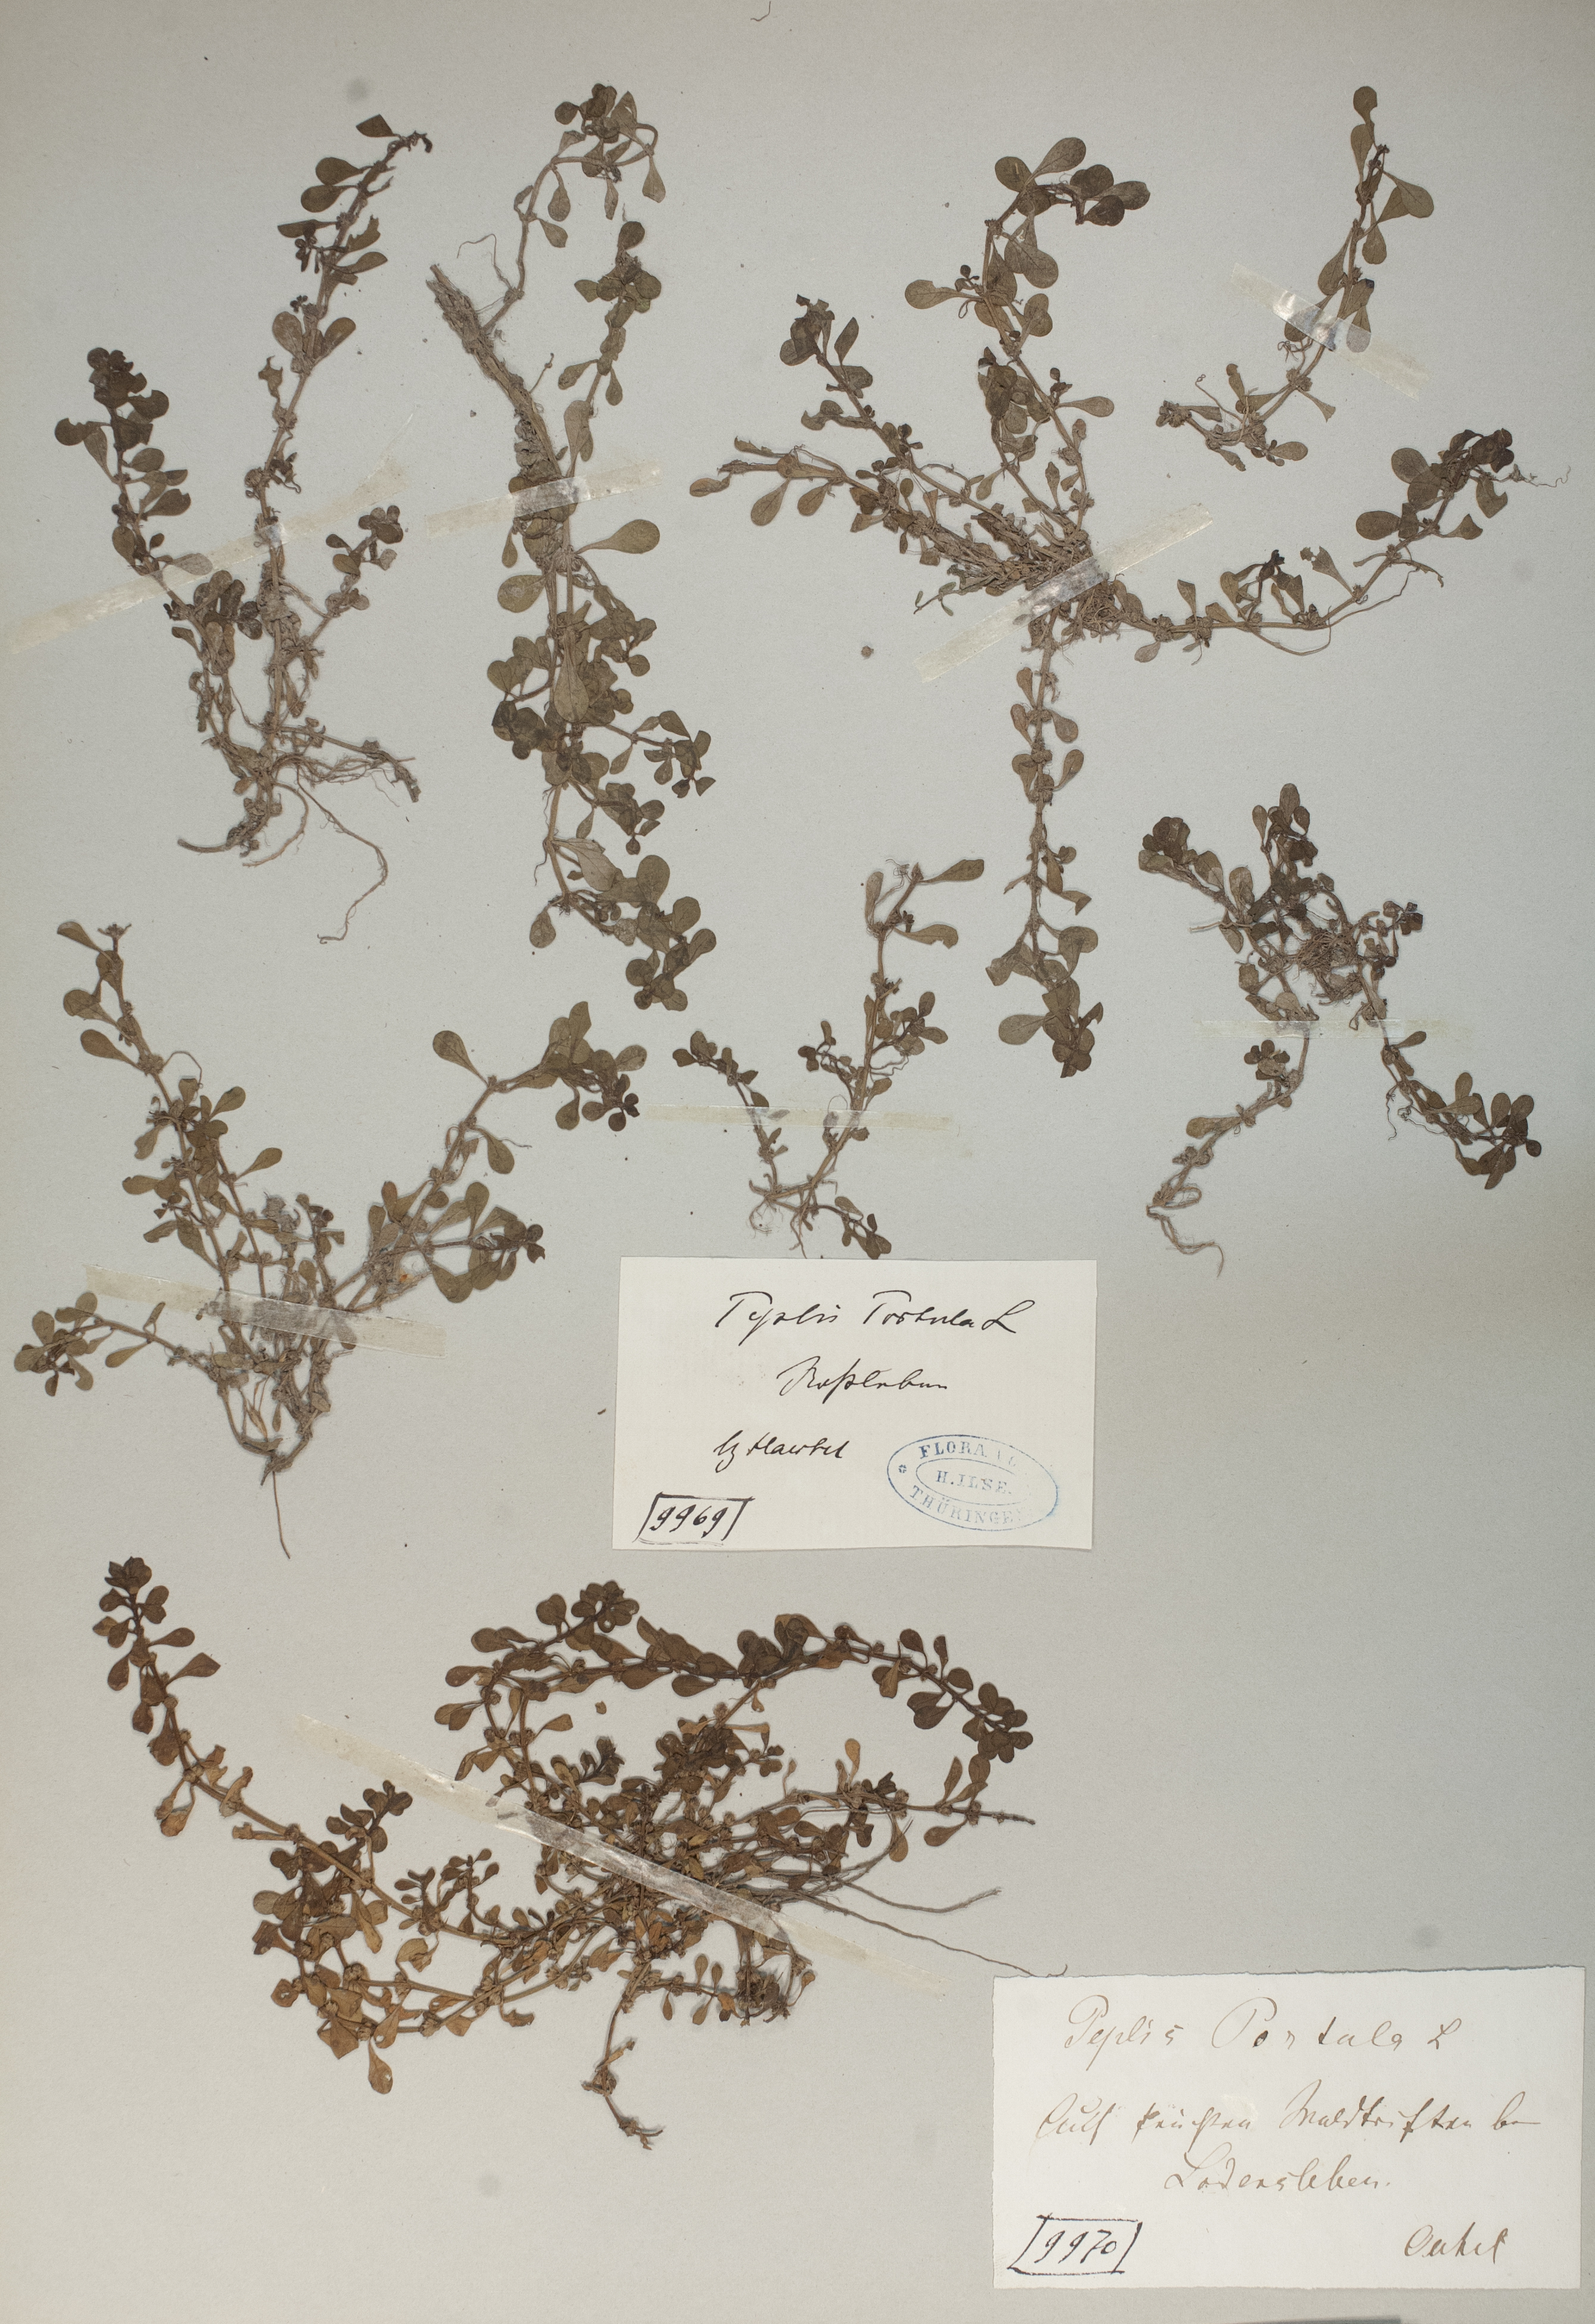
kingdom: Plantae
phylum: Tracheophyta
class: Magnoliopsida
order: Myrtales
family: Lythraceae
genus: Lythrum
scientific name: Lythrum portula
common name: Water purslane
